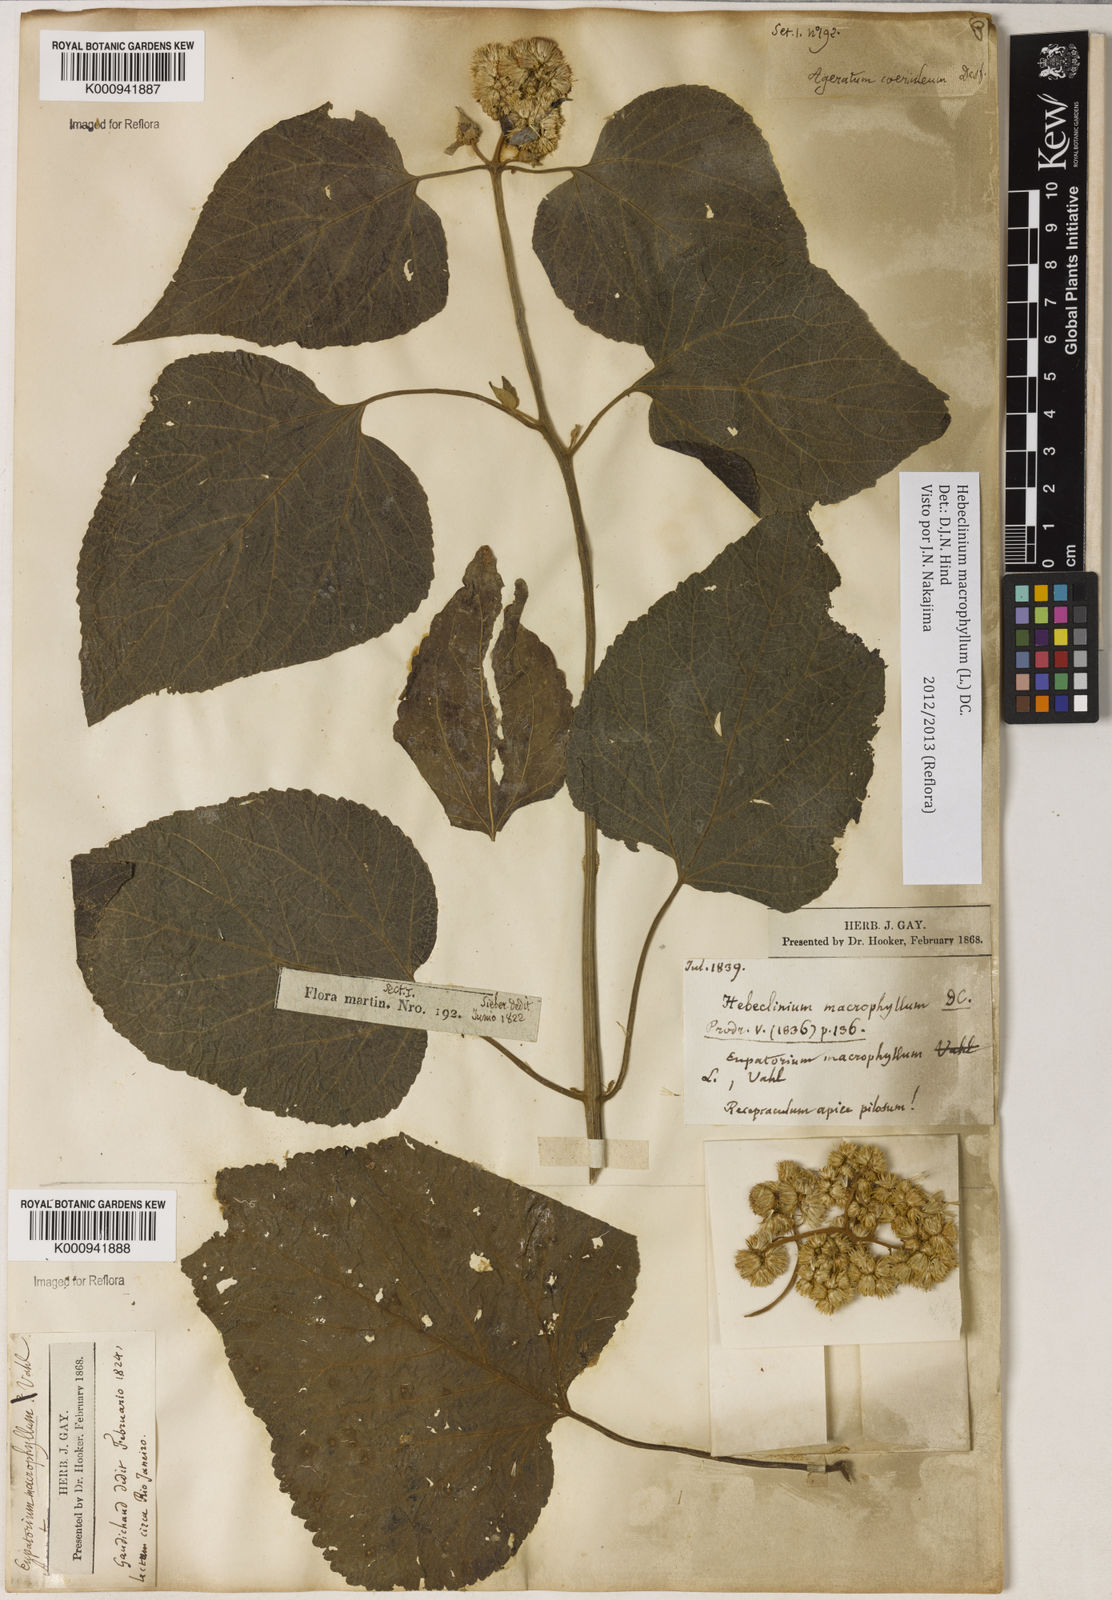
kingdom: Plantae
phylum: Tracheophyta
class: Magnoliopsida
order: Asterales
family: Asteraceae
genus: Hebeclinium
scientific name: Hebeclinium macrophyllum
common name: Largeleaf thoroughwort
